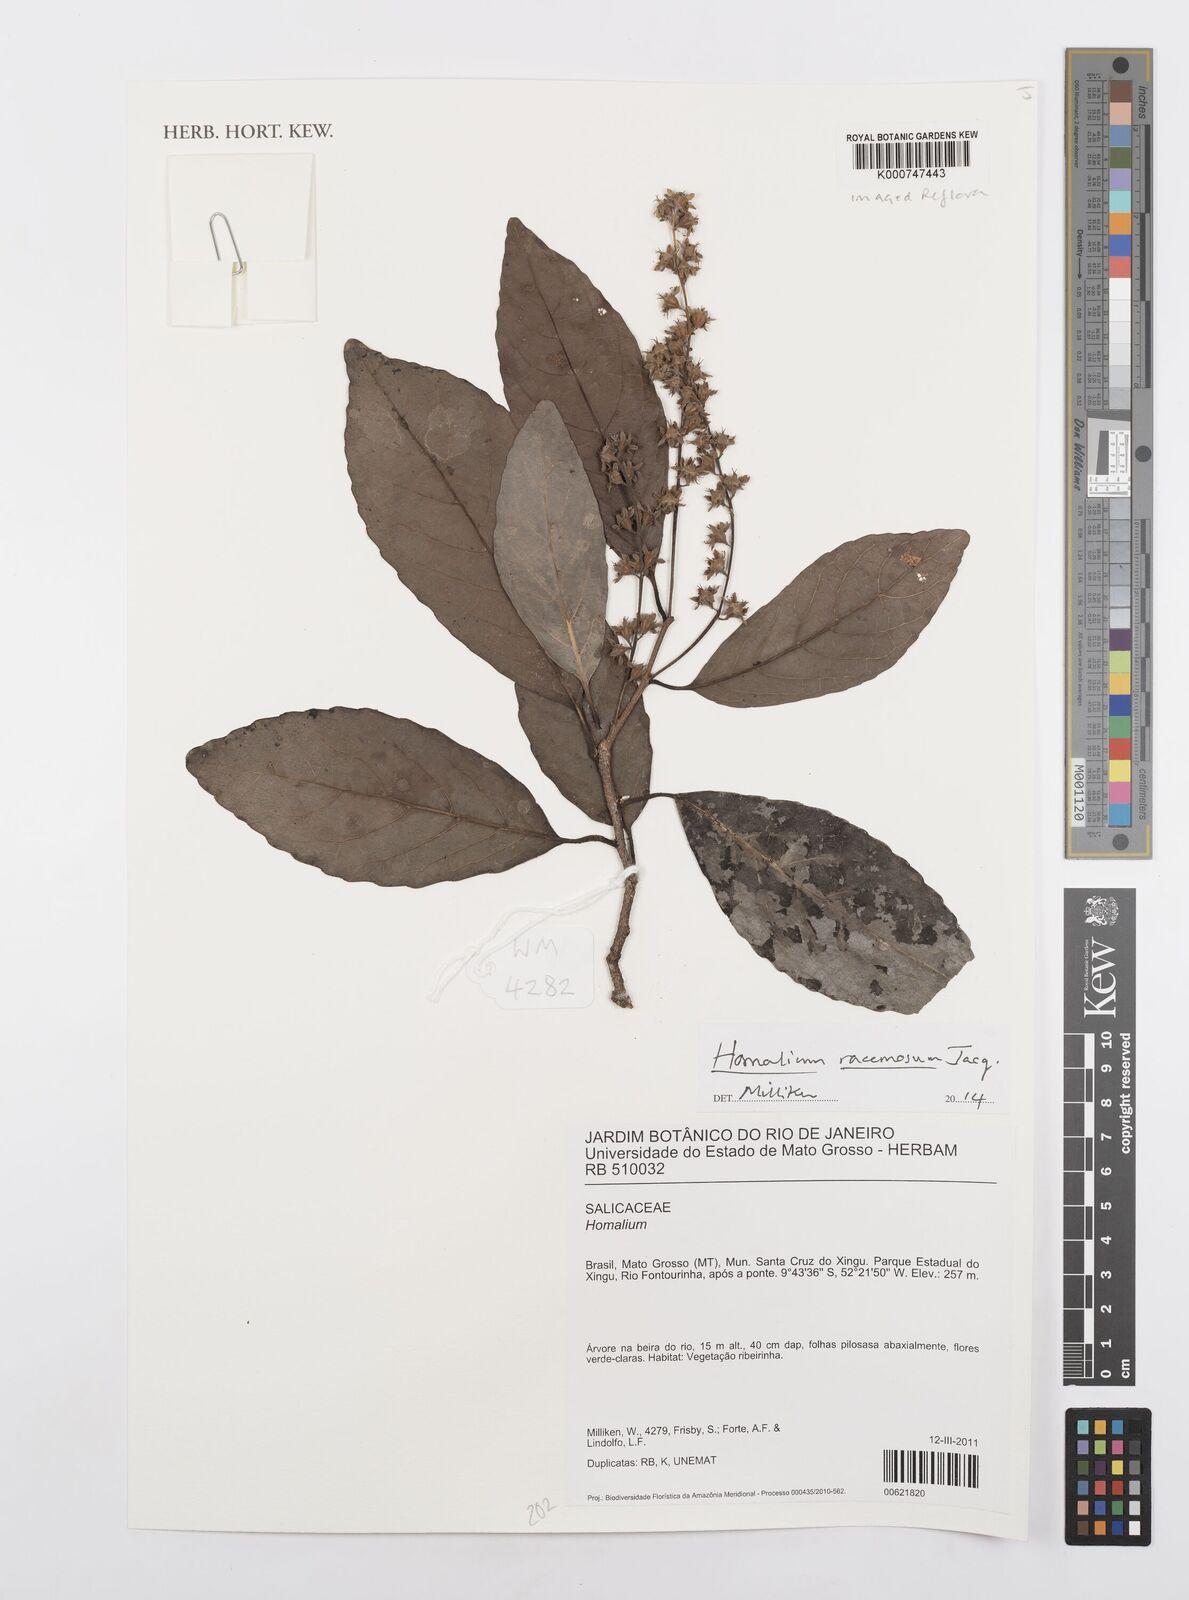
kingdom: Plantae
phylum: Tracheophyta
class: Magnoliopsida
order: Malpighiales
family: Salicaceae
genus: Homalium
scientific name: Homalium racemosum
